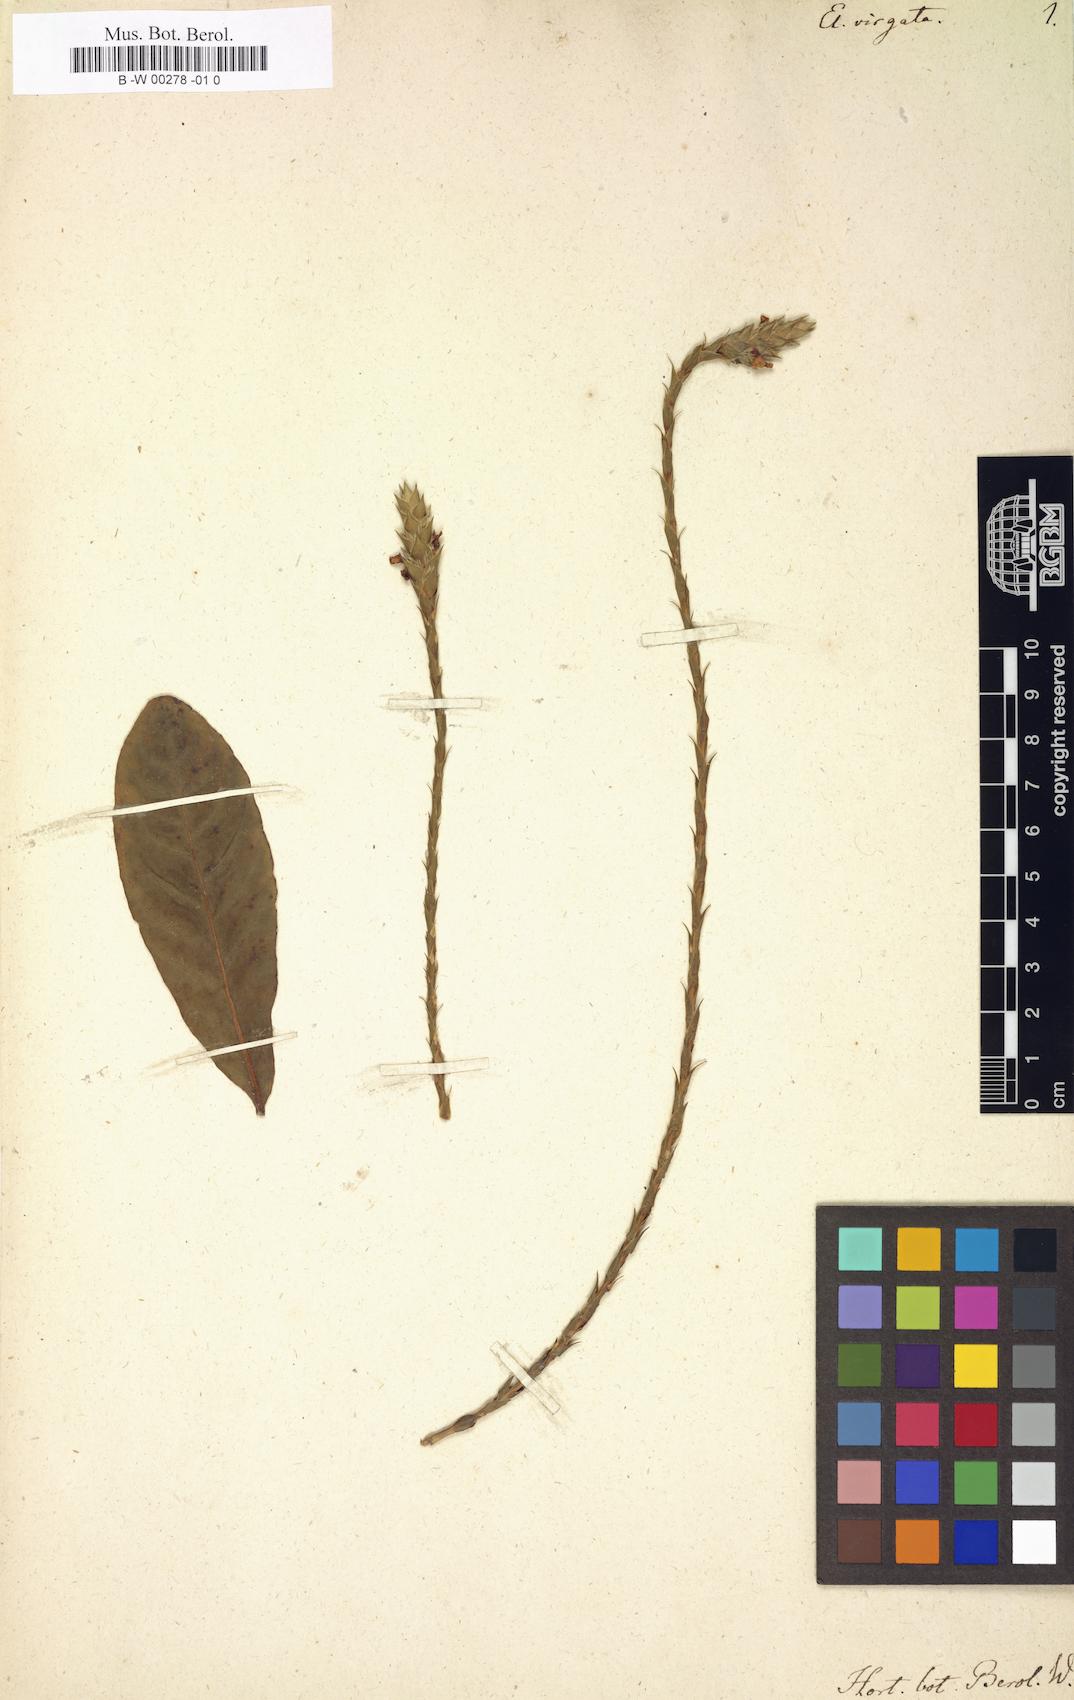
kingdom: Plantae
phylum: Tracheophyta
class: Magnoliopsida
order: Lamiales
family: Acanthaceae
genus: Elytraria
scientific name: Elytraria caroliniensis
